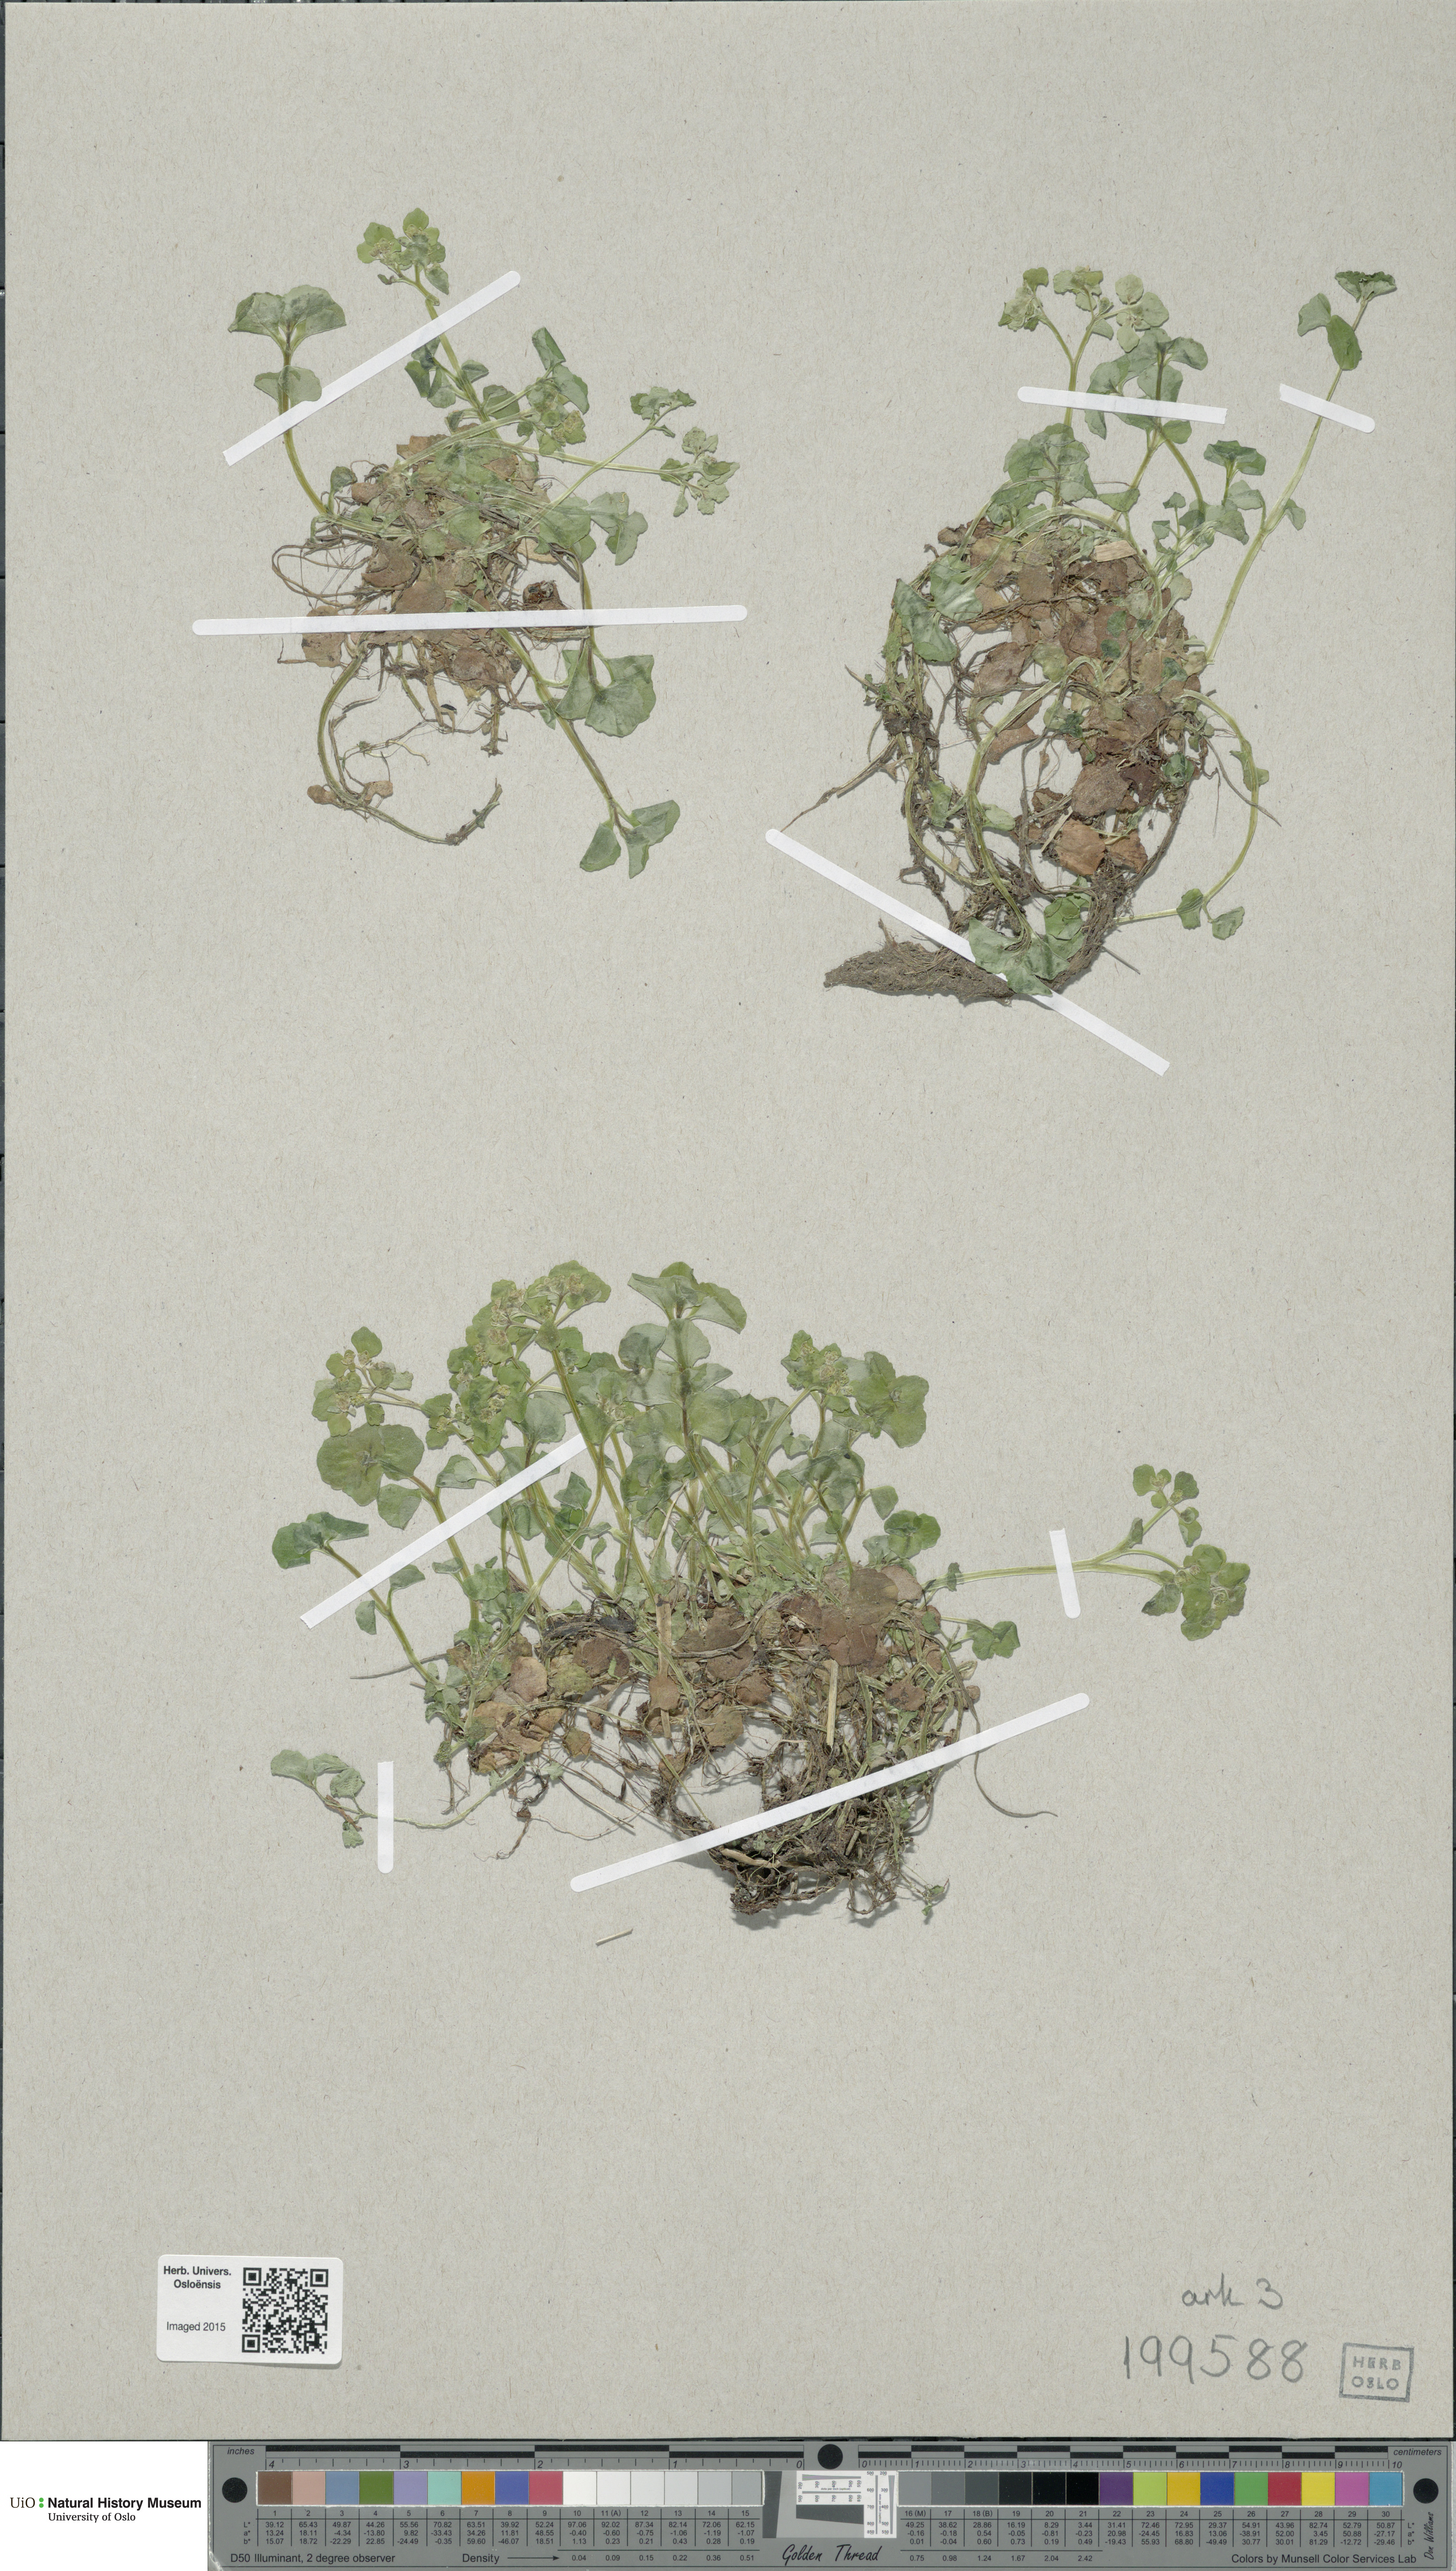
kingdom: Plantae
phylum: Tracheophyta
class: Magnoliopsida
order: Saxifragales
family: Saxifragaceae
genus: Chrysosplenium
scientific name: Chrysosplenium oppositifolium
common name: Opposite-leaved golden-saxifrage
